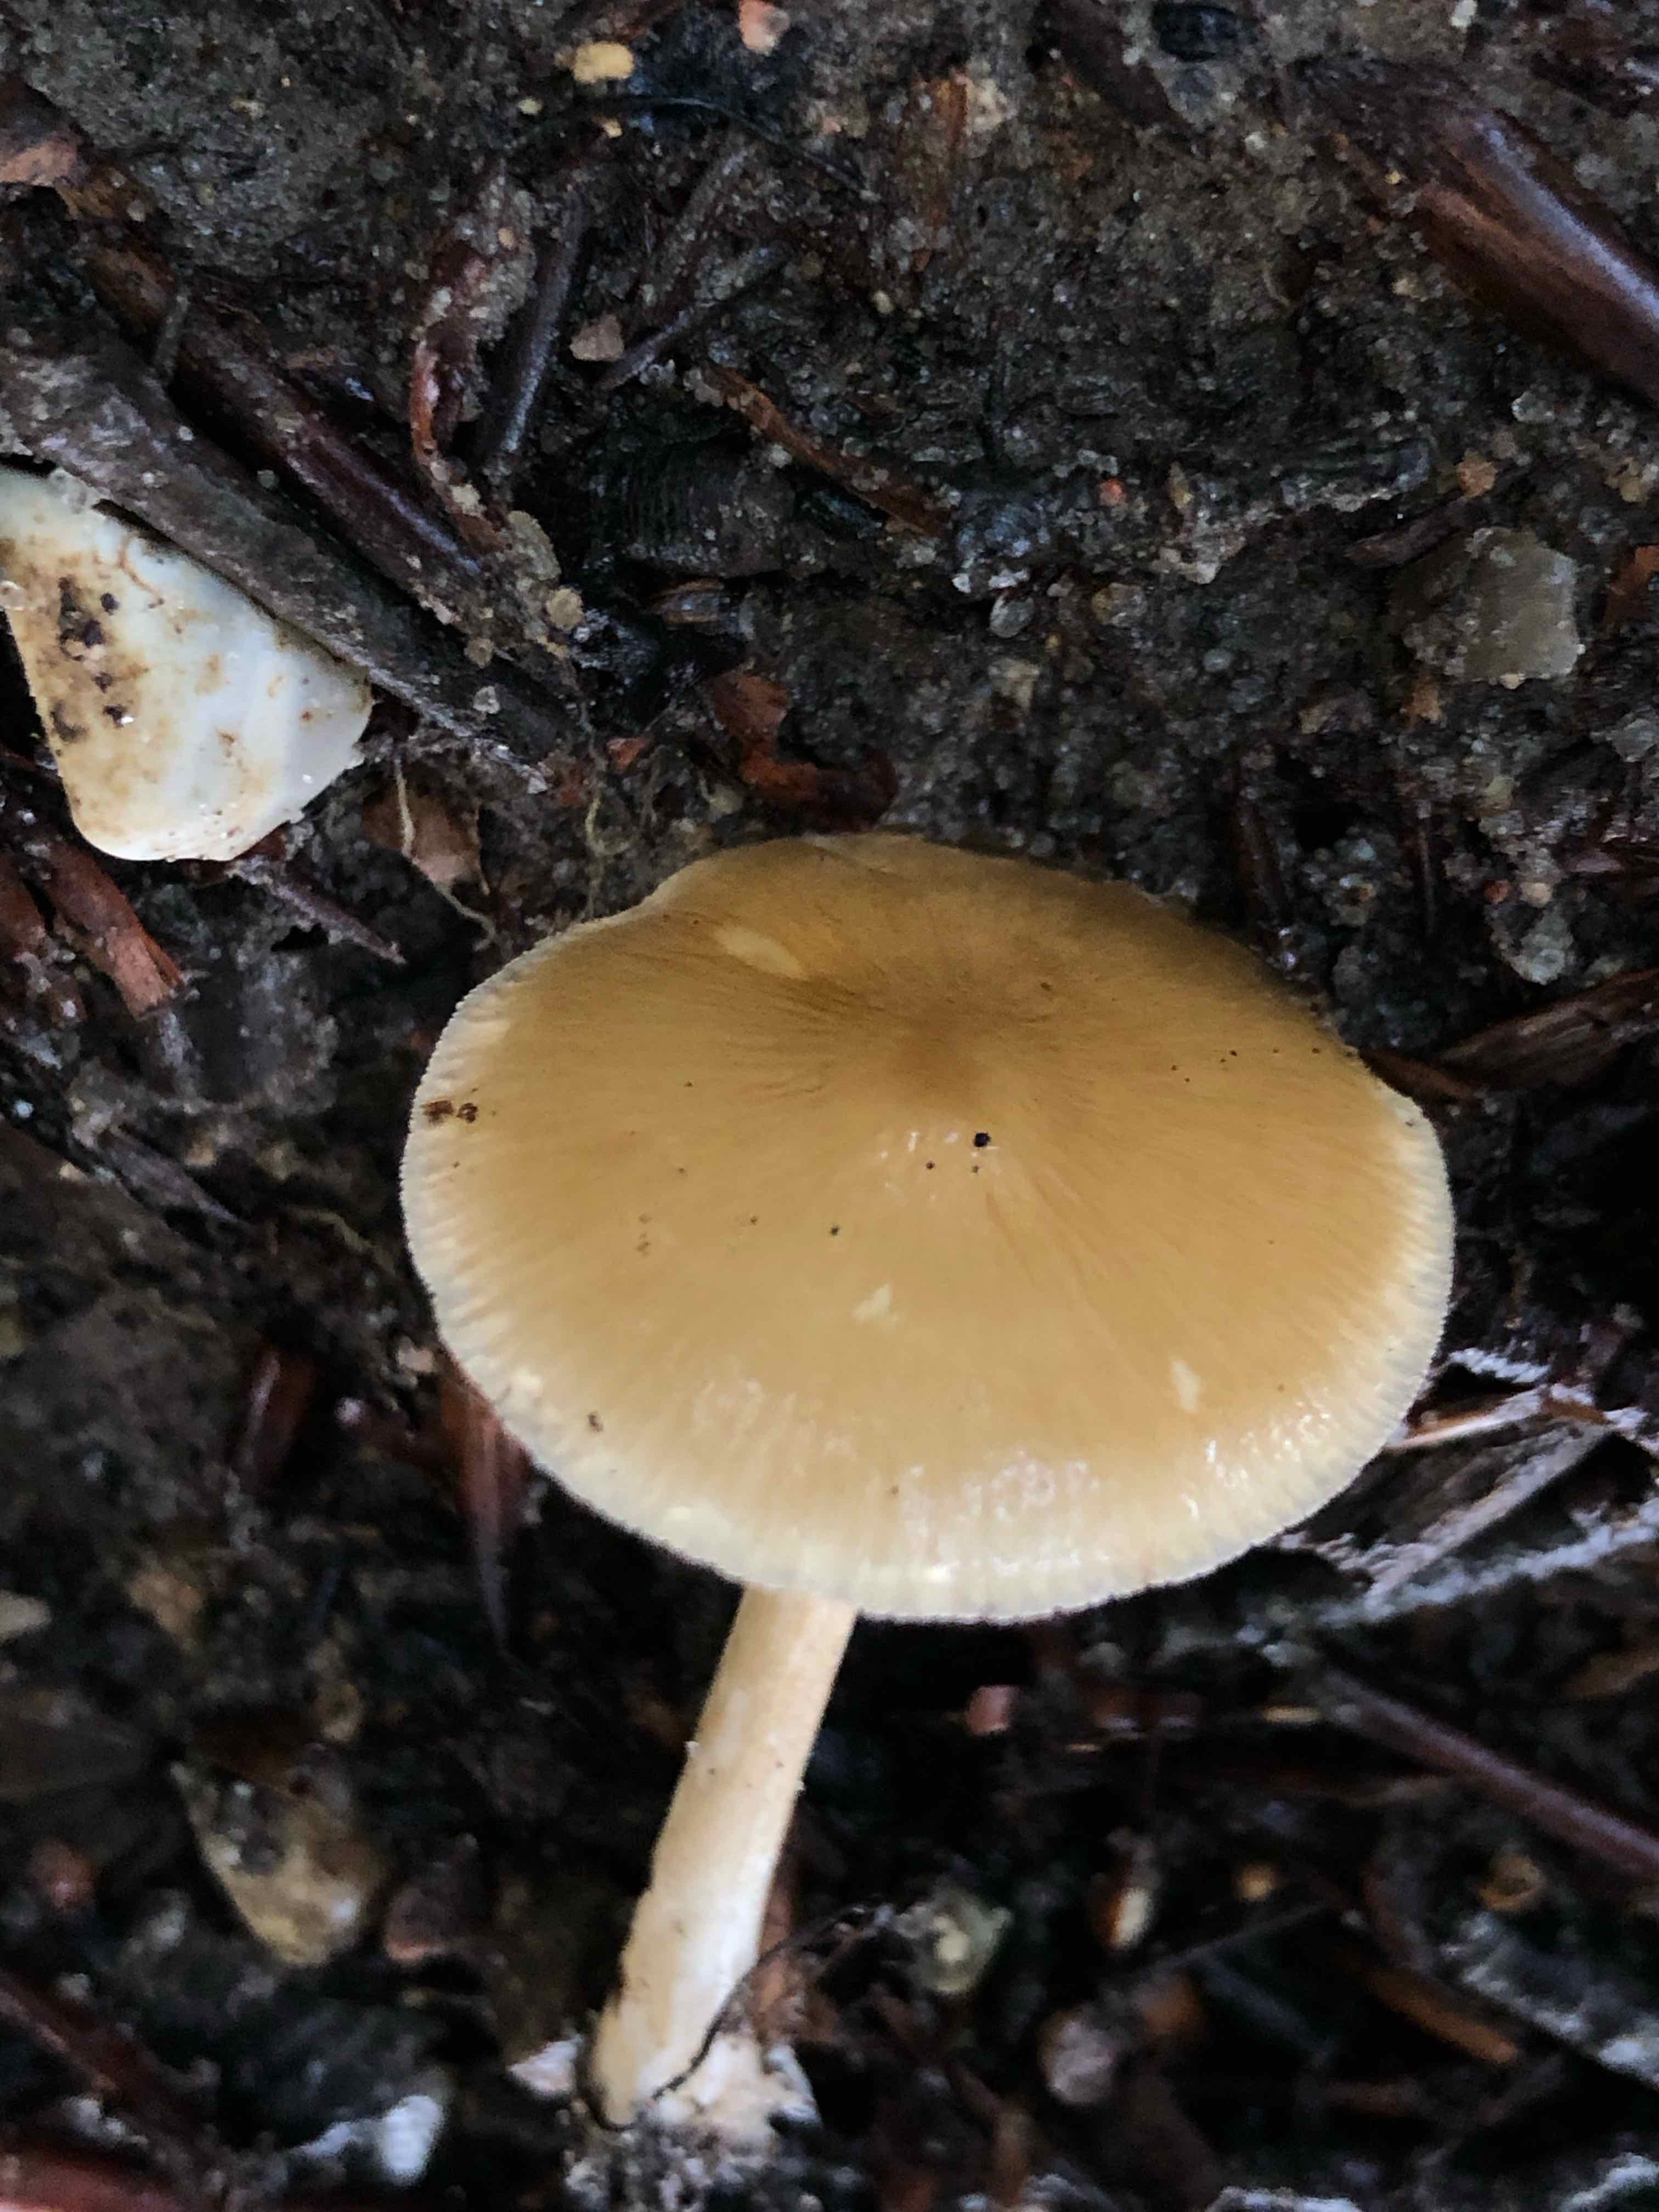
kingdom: Fungi
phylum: Basidiomycota
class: Agaricomycetes
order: Agaricales
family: Porotheleaceae
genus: Hydropodia
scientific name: Hydropodia subalpina
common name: vår-fnugfod
